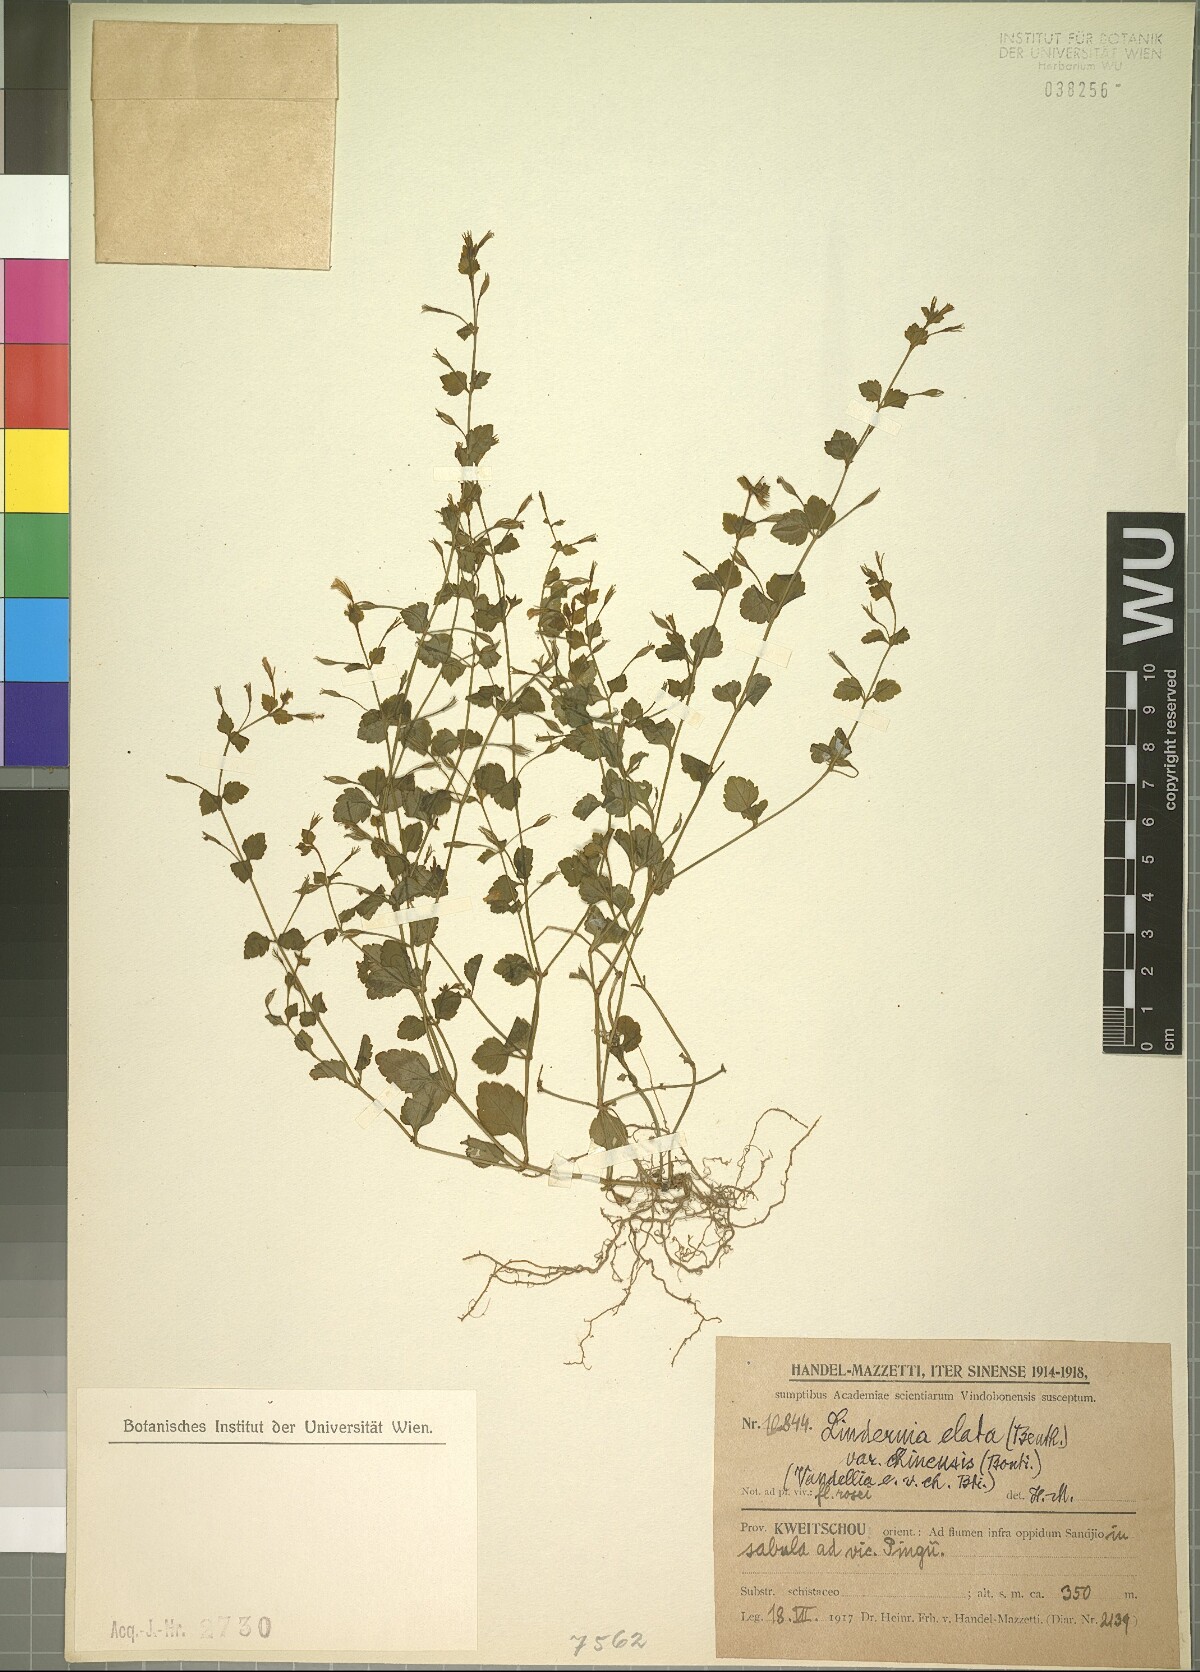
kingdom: Plantae
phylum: Tracheophyta
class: Magnoliopsida
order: Lamiales
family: Linderniaceae
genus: Vandellia
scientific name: Vandellia elata
